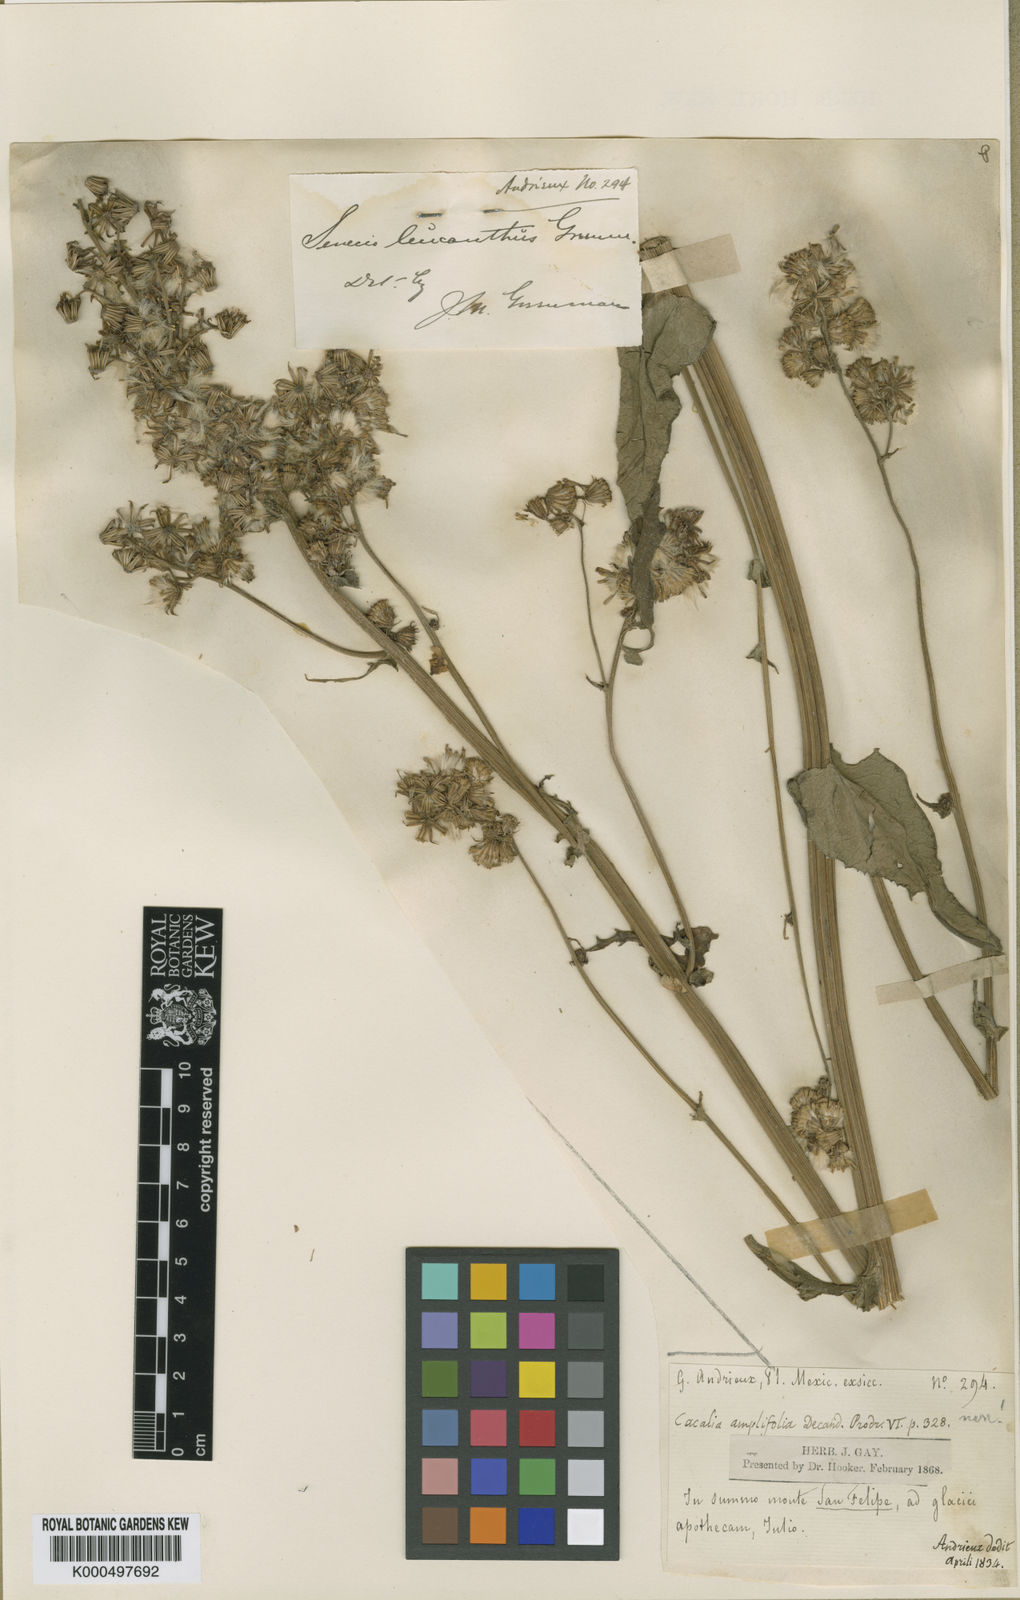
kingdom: Plantae
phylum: Tracheophyta
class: Magnoliopsida
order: Asterales
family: Asteraceae
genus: Senecio
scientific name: Senecio leucanthus
